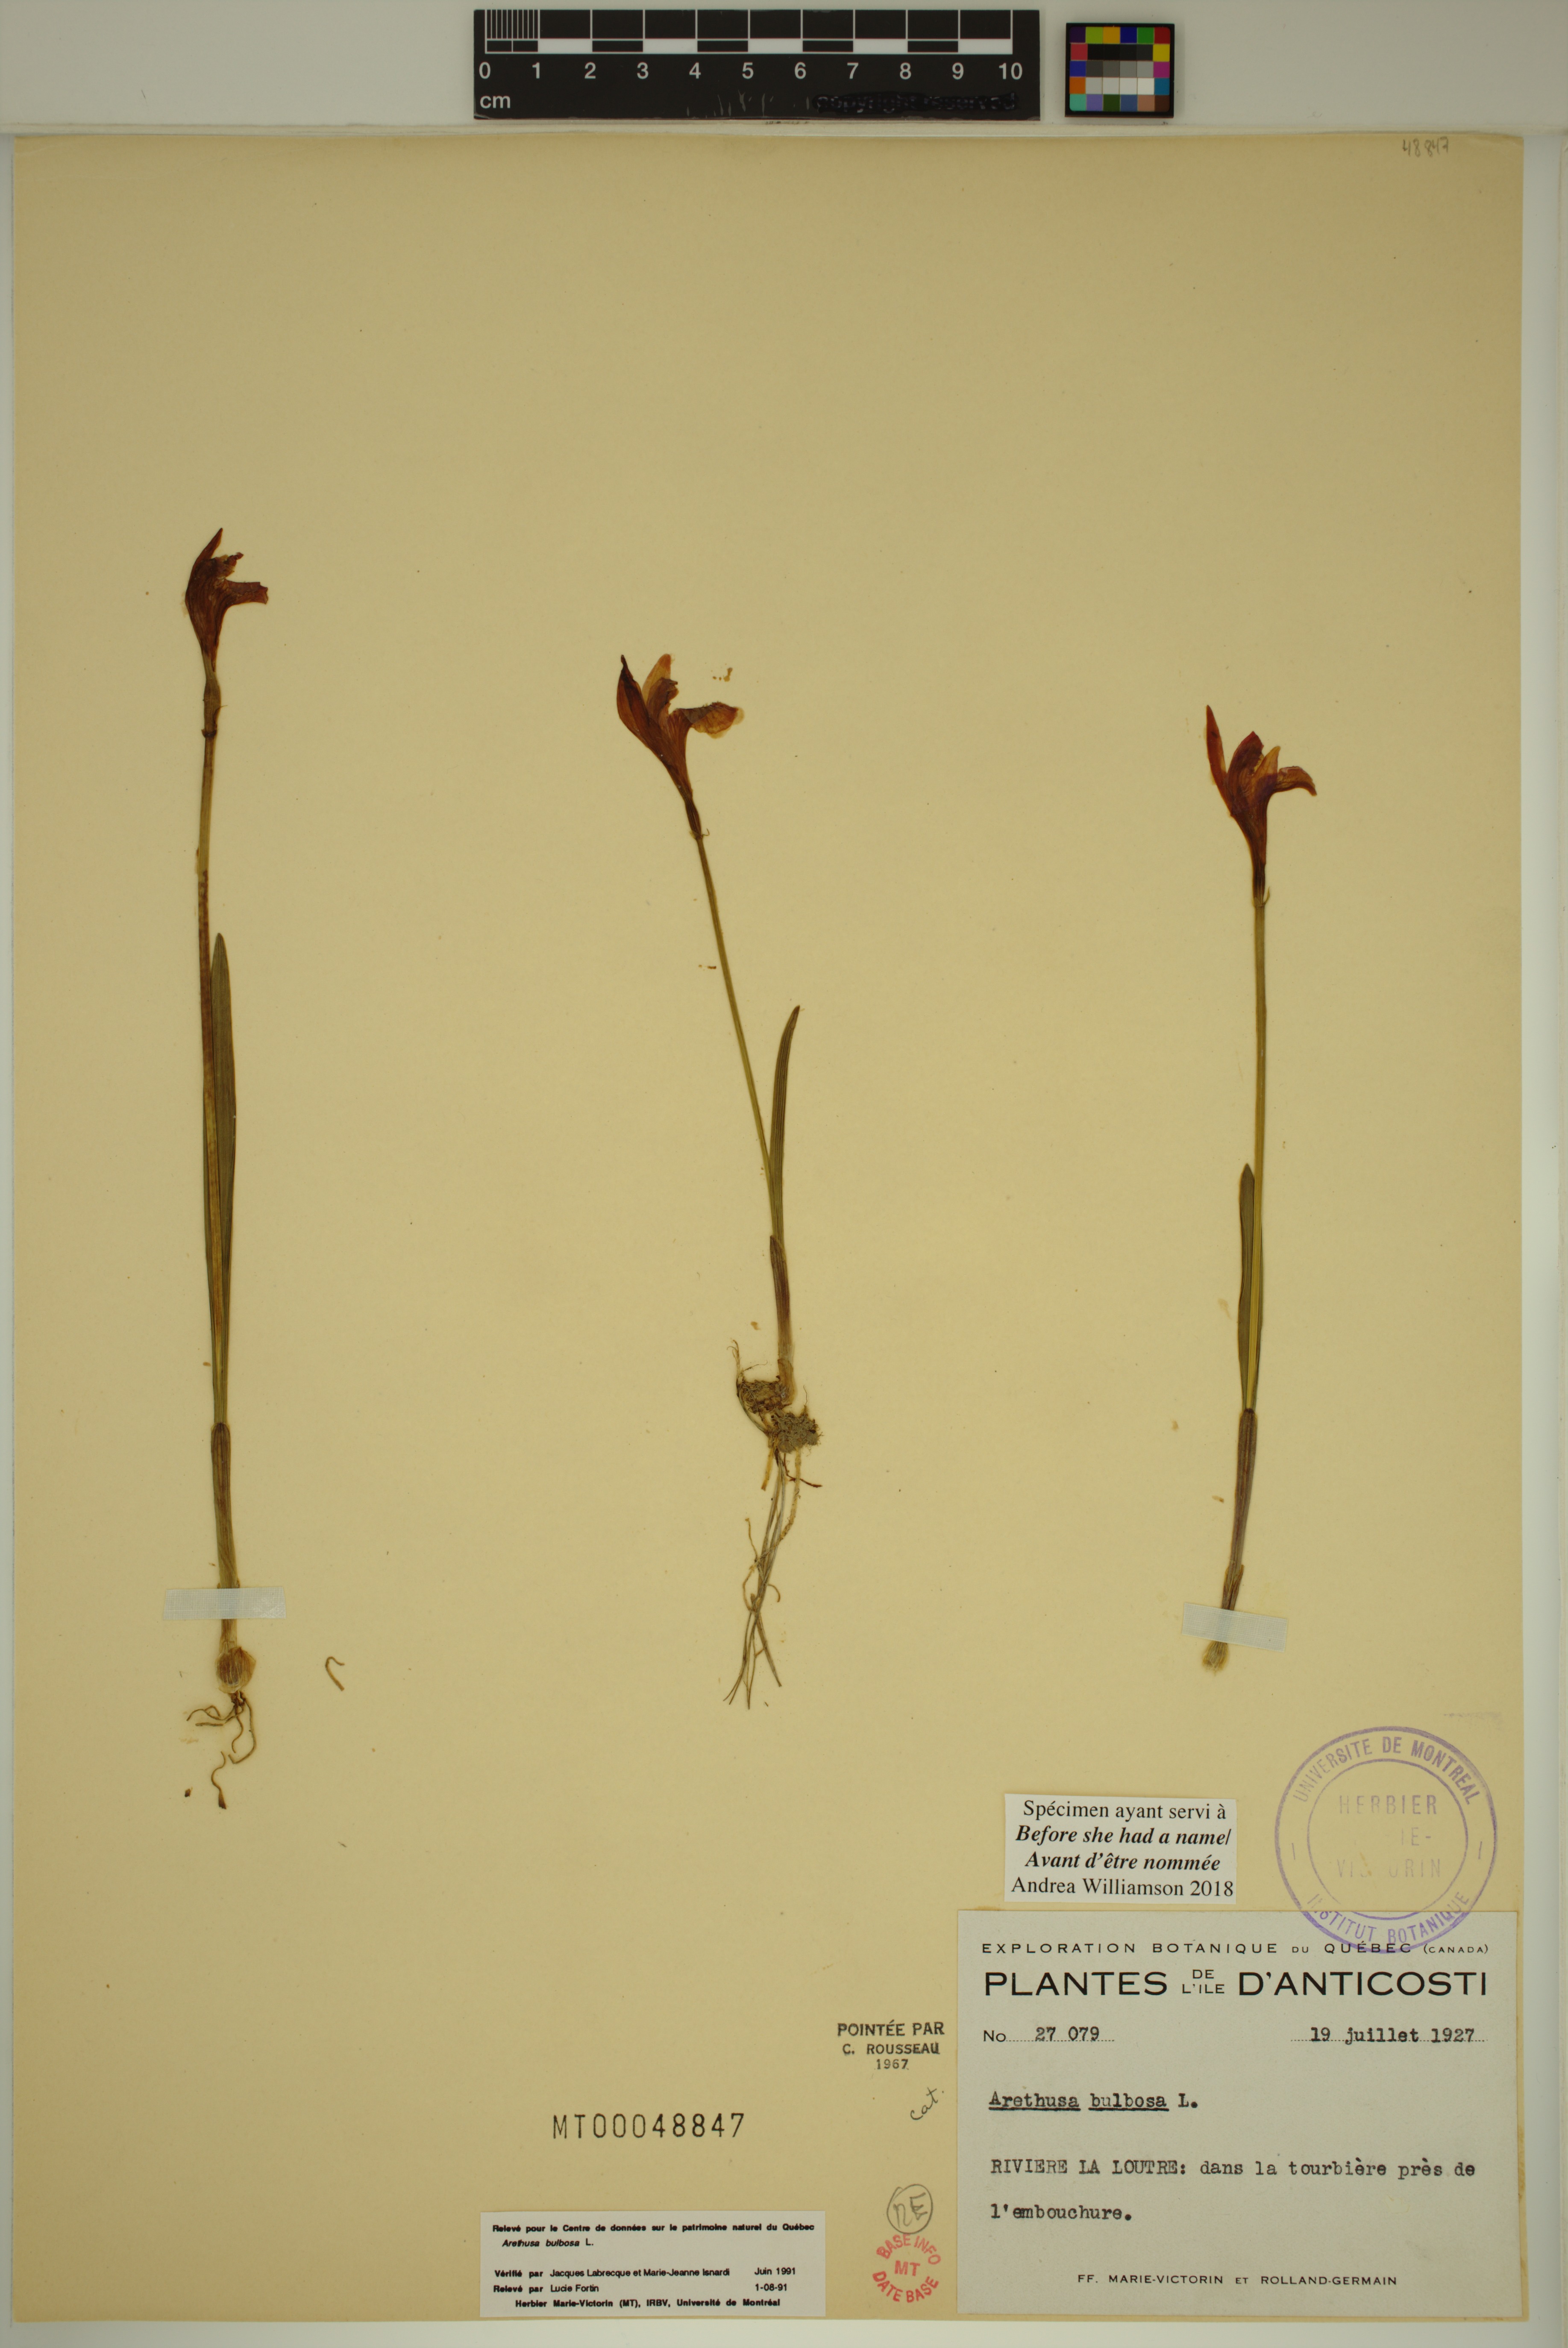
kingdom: Plantae
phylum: Tracheophyta
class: Liliopsida
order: Asparagales
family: Orchidaceae
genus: Arethusa
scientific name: Arethusa bulbosa
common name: Arethusa
